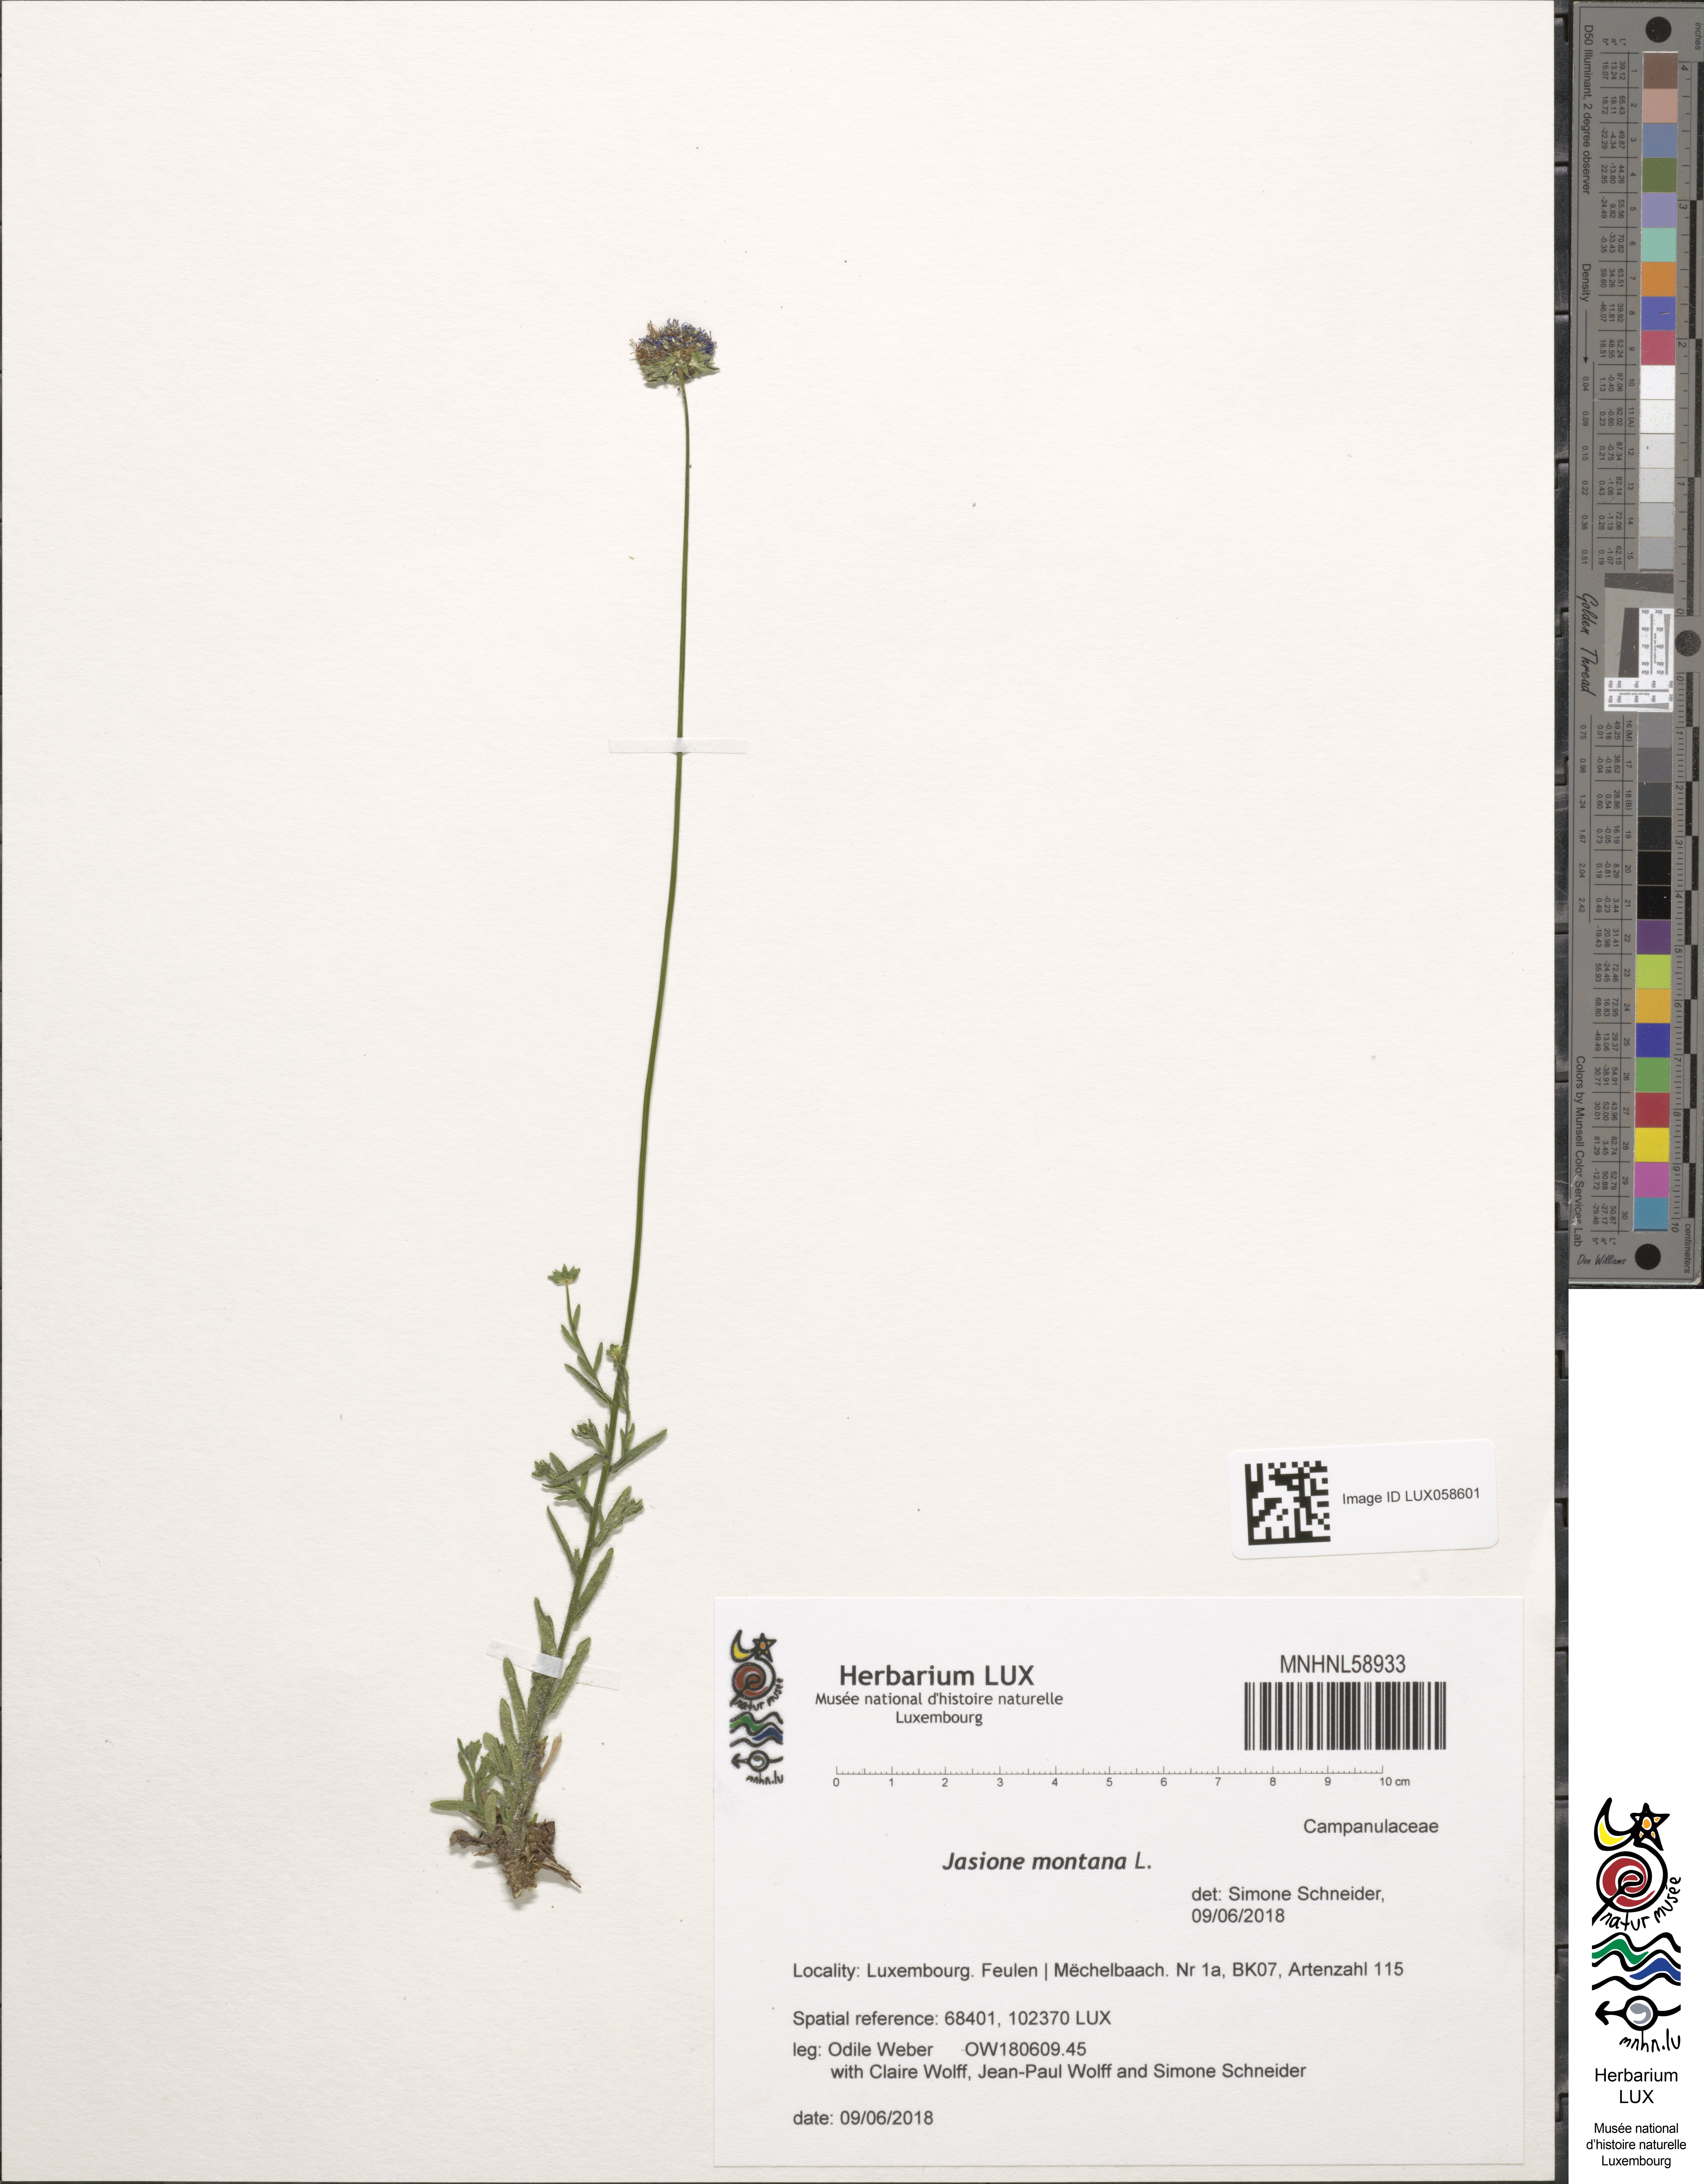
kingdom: Plantae
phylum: Tracheophyta
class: Magnoliopsida
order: Asterales
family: Campanulaceae
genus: Jasione
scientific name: Jasione montana
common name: Sheep's-bit
